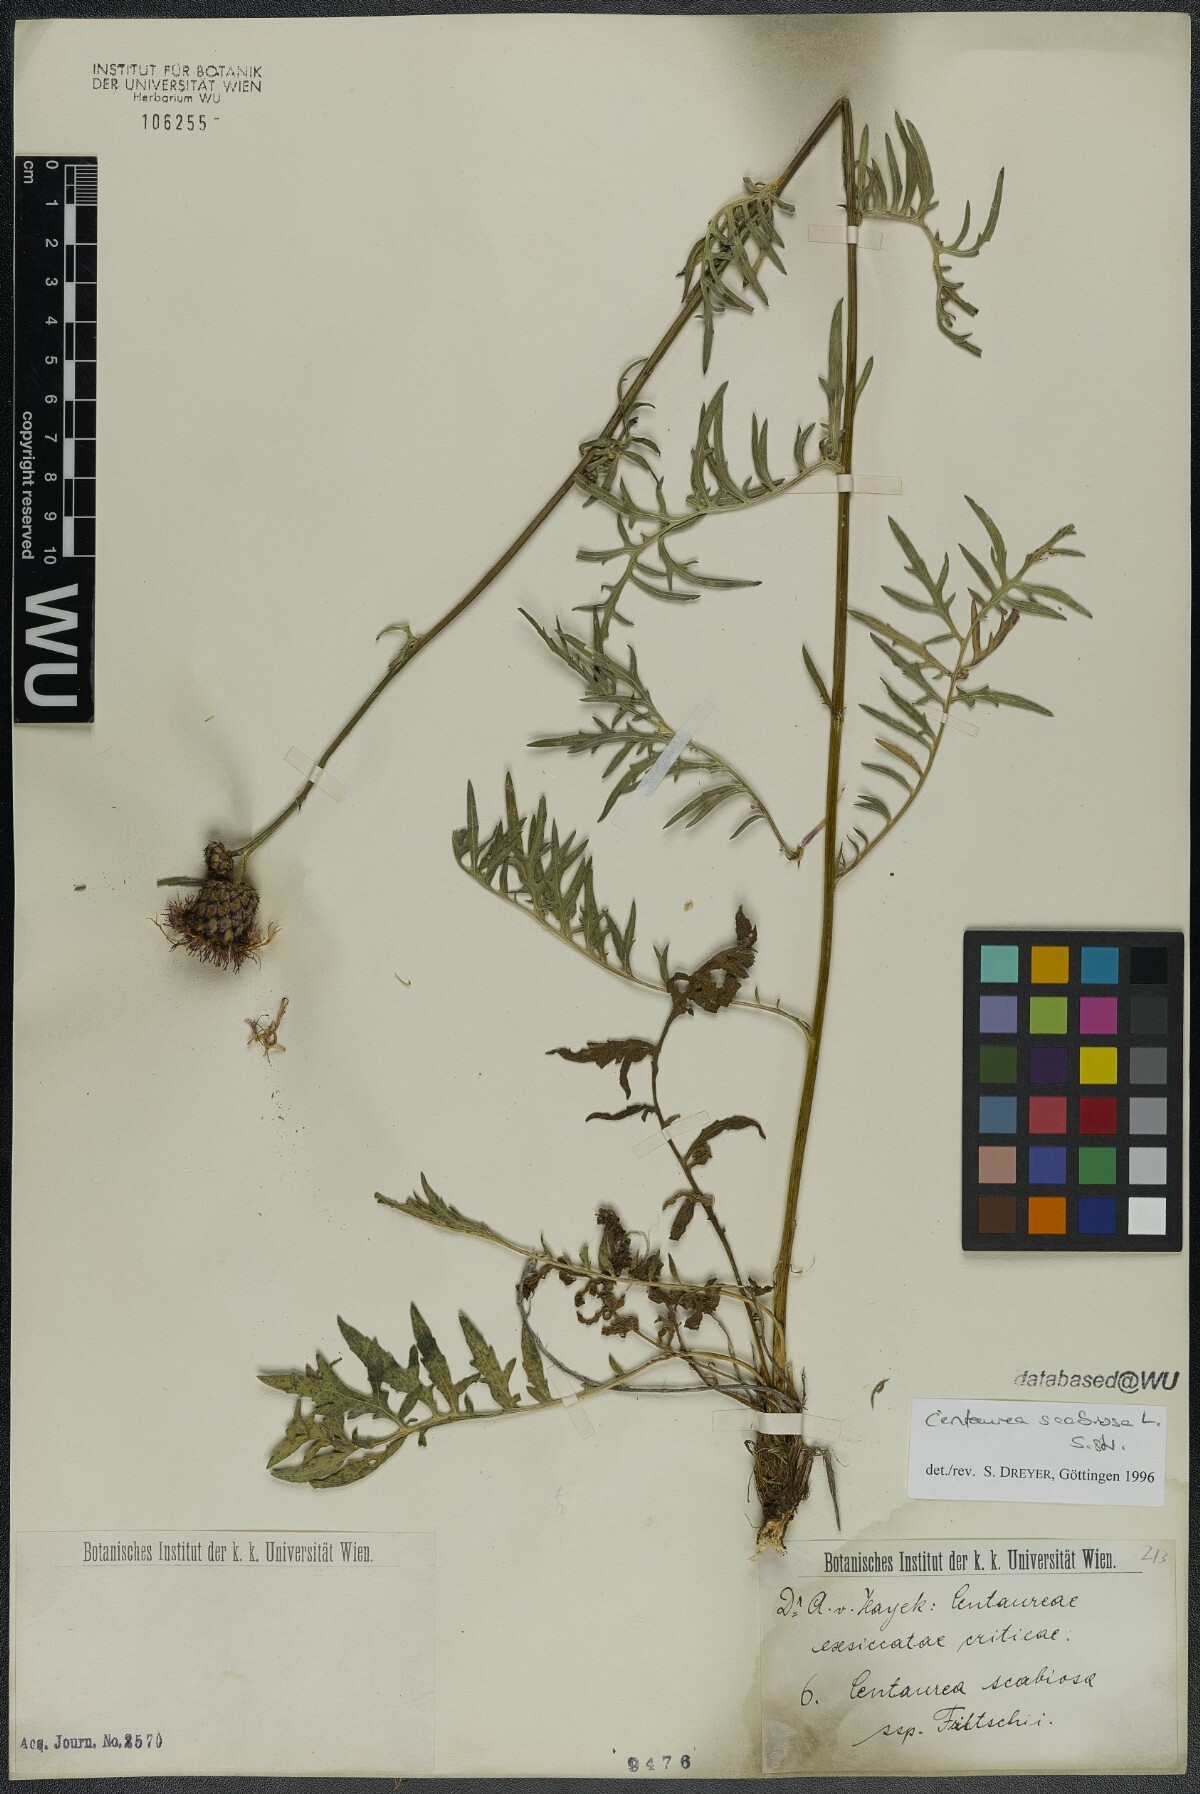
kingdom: Plantae
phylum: Tracheophyta
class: Magnoliopsida
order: Asterales
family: Asteraceae
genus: Centaurea
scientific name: Centaurea scabiosa
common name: Greater knapweed
